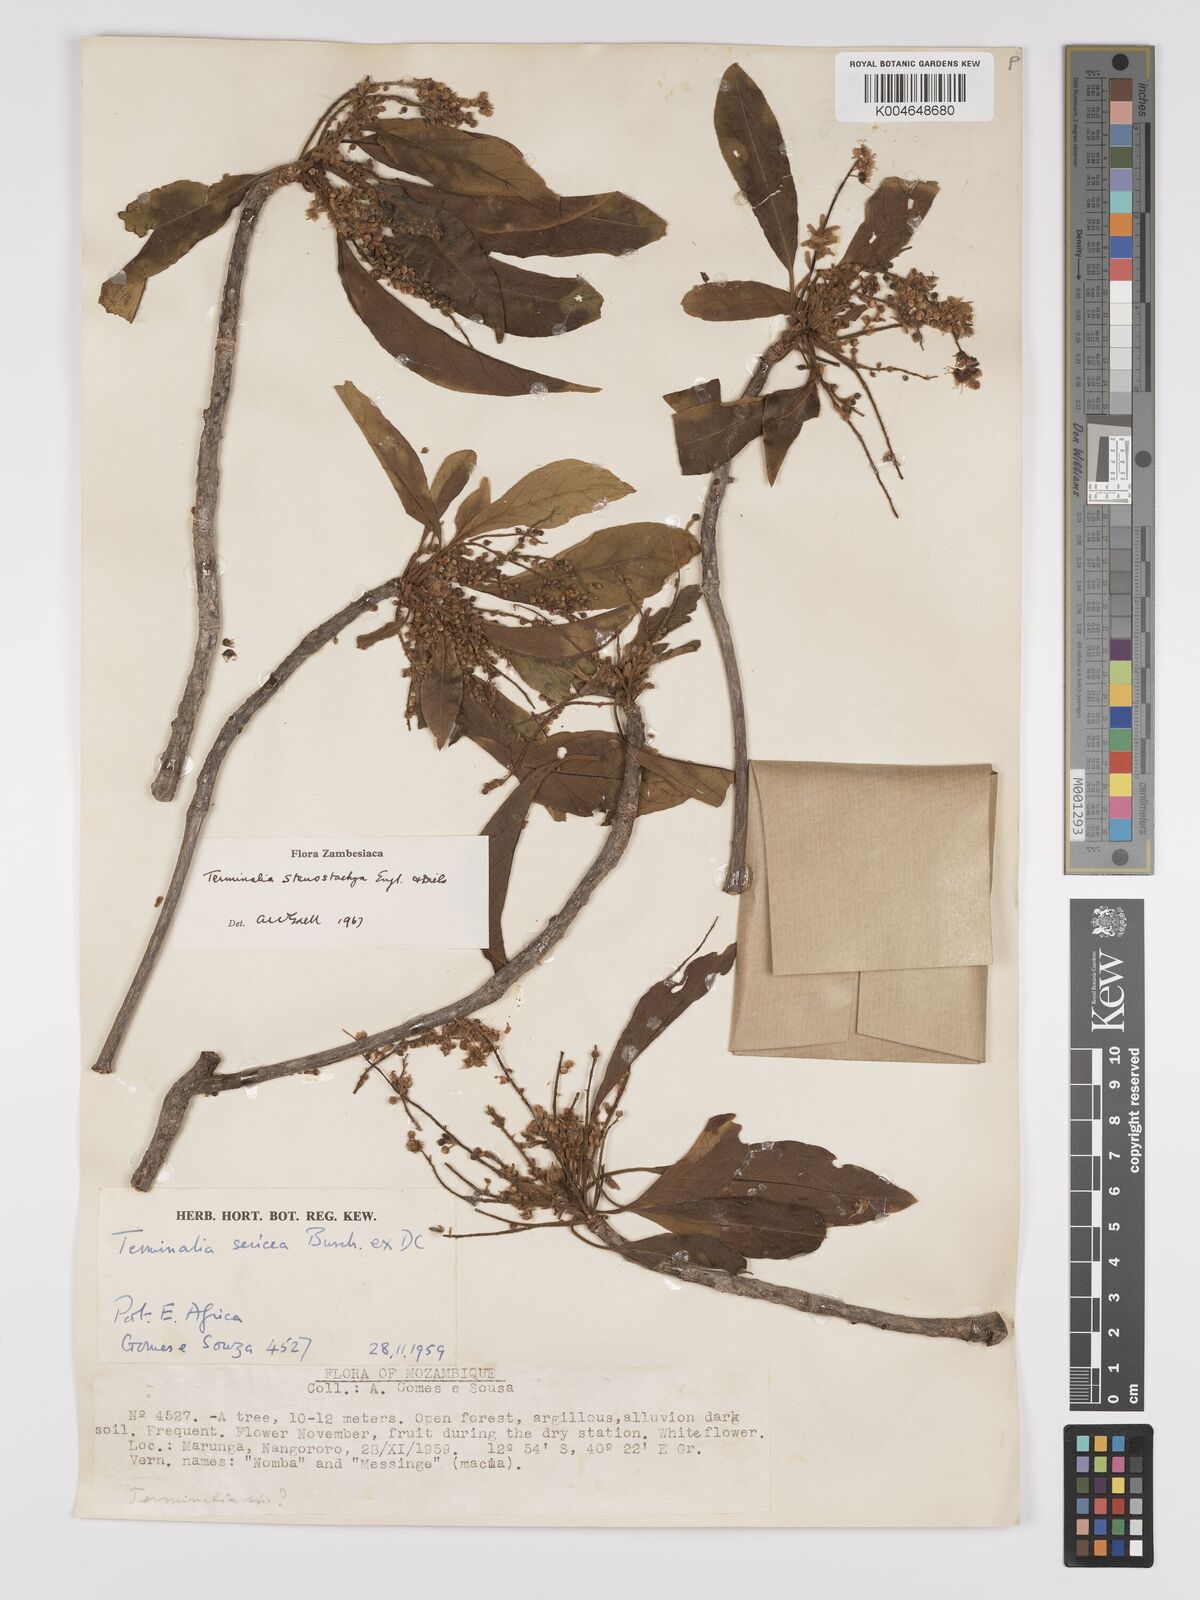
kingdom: Plantae
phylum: Tracheophyta
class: Magnoliopsida
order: Myrtales
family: Combretaceae
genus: Terminalia
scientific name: Terminalia stenostachya
